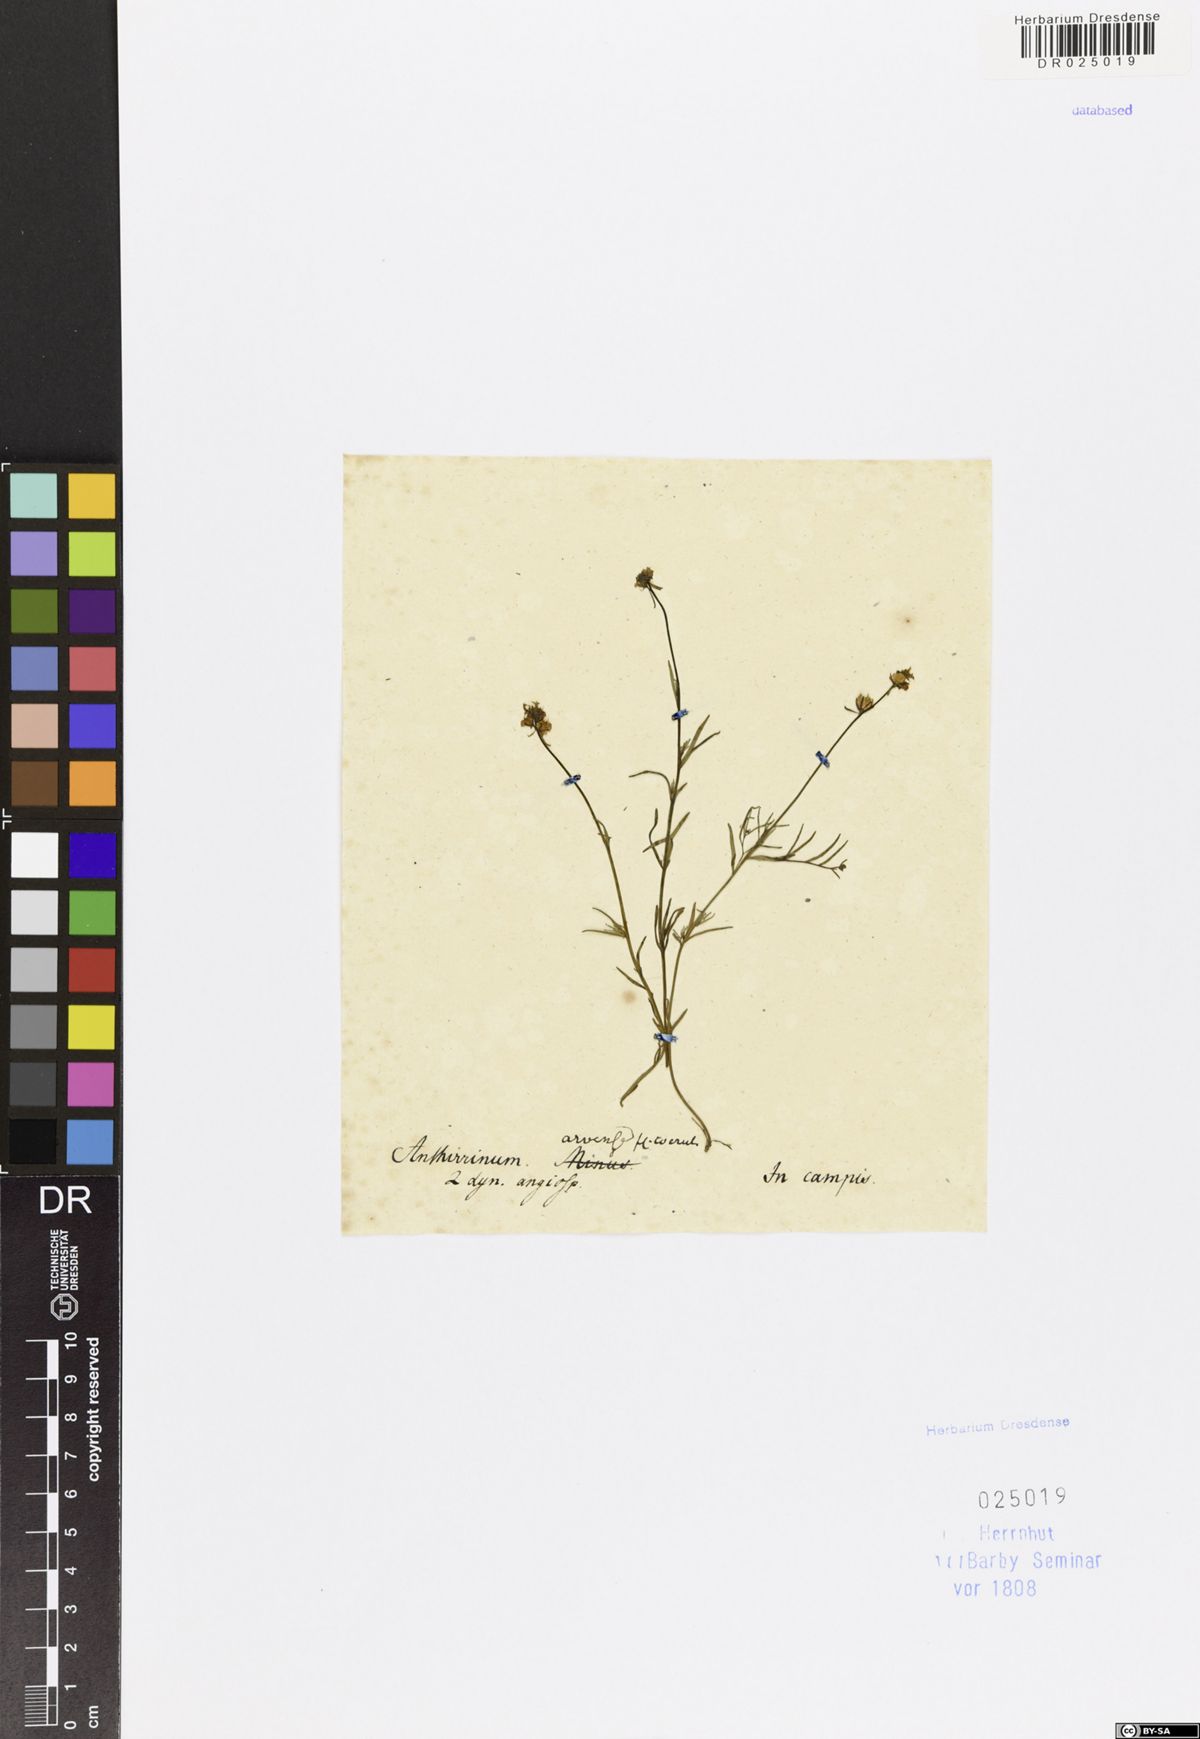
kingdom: Plantae
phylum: Tracheophyta
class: Magnoliopsida
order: Lamiales
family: Plantaginaceae
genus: Linaria
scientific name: Linaria arvensis
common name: Corn toadflax
